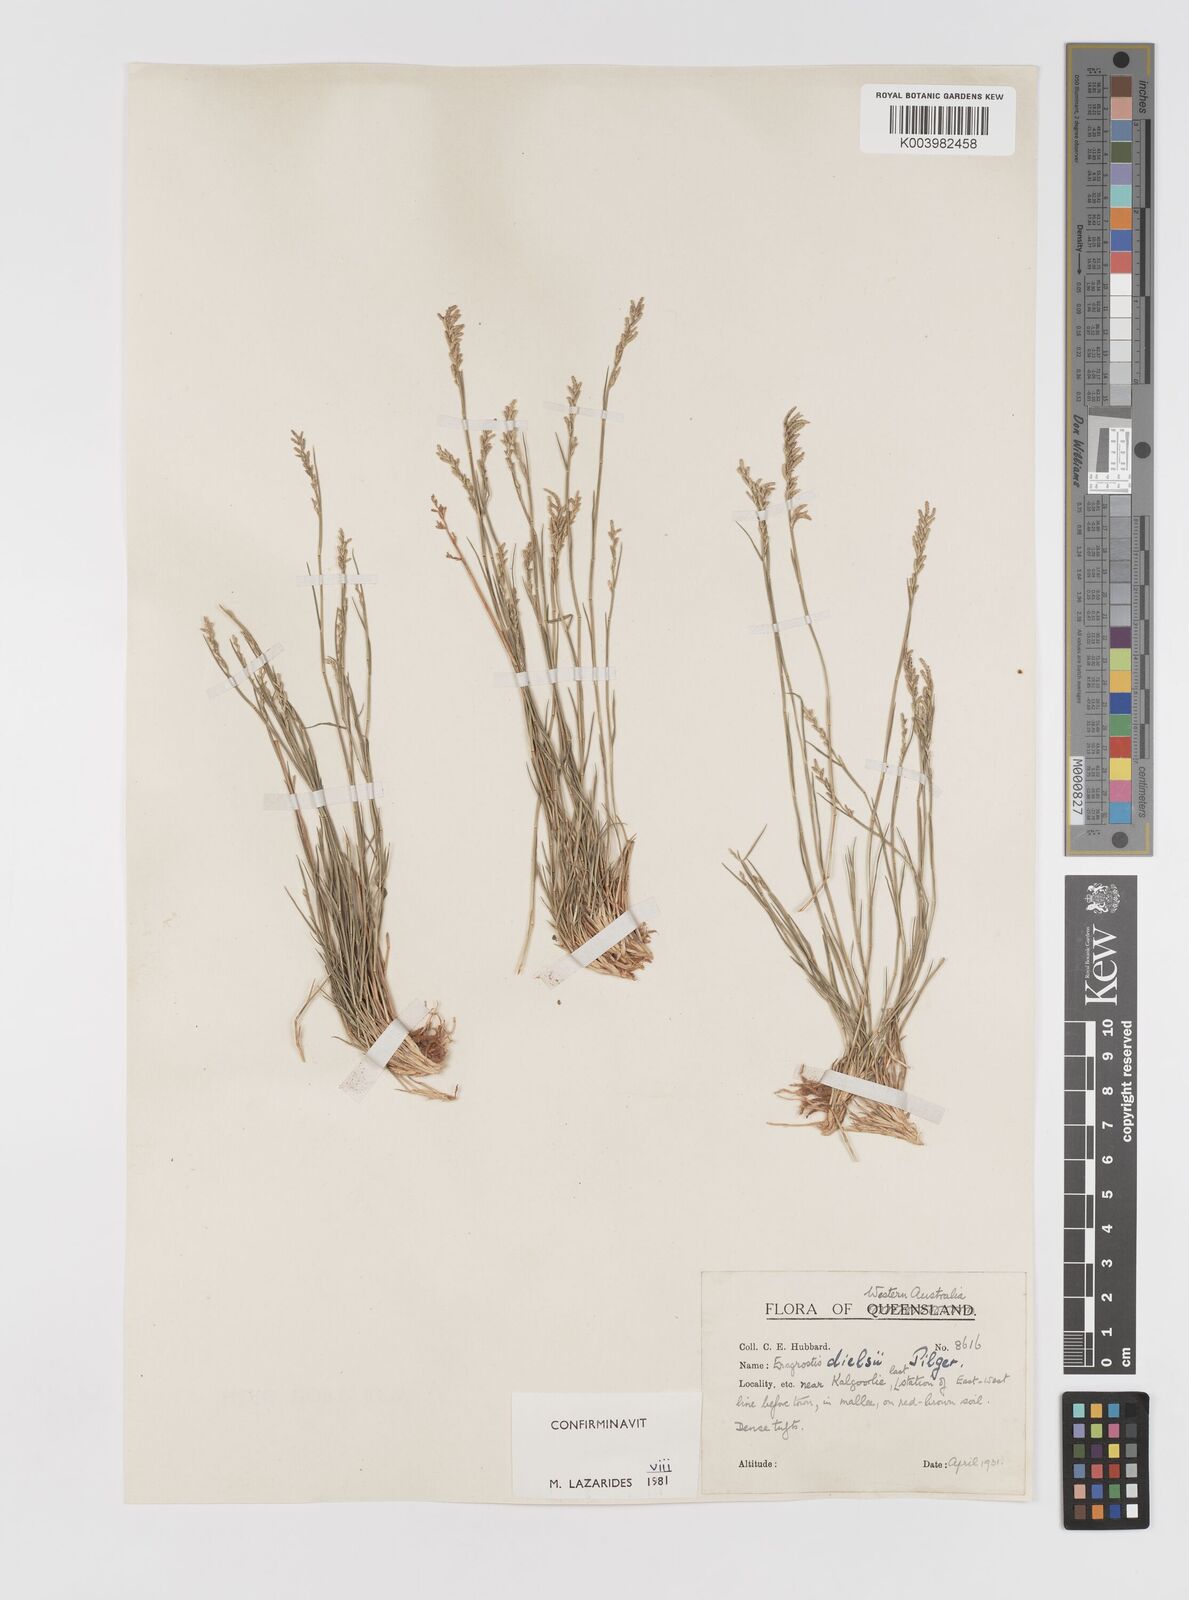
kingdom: Plantae
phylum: Tracheophyta
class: Liliopsida
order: Poales
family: Poaceae
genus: Eragrostis
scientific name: Eragrostis dielsii
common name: Lovegrass
